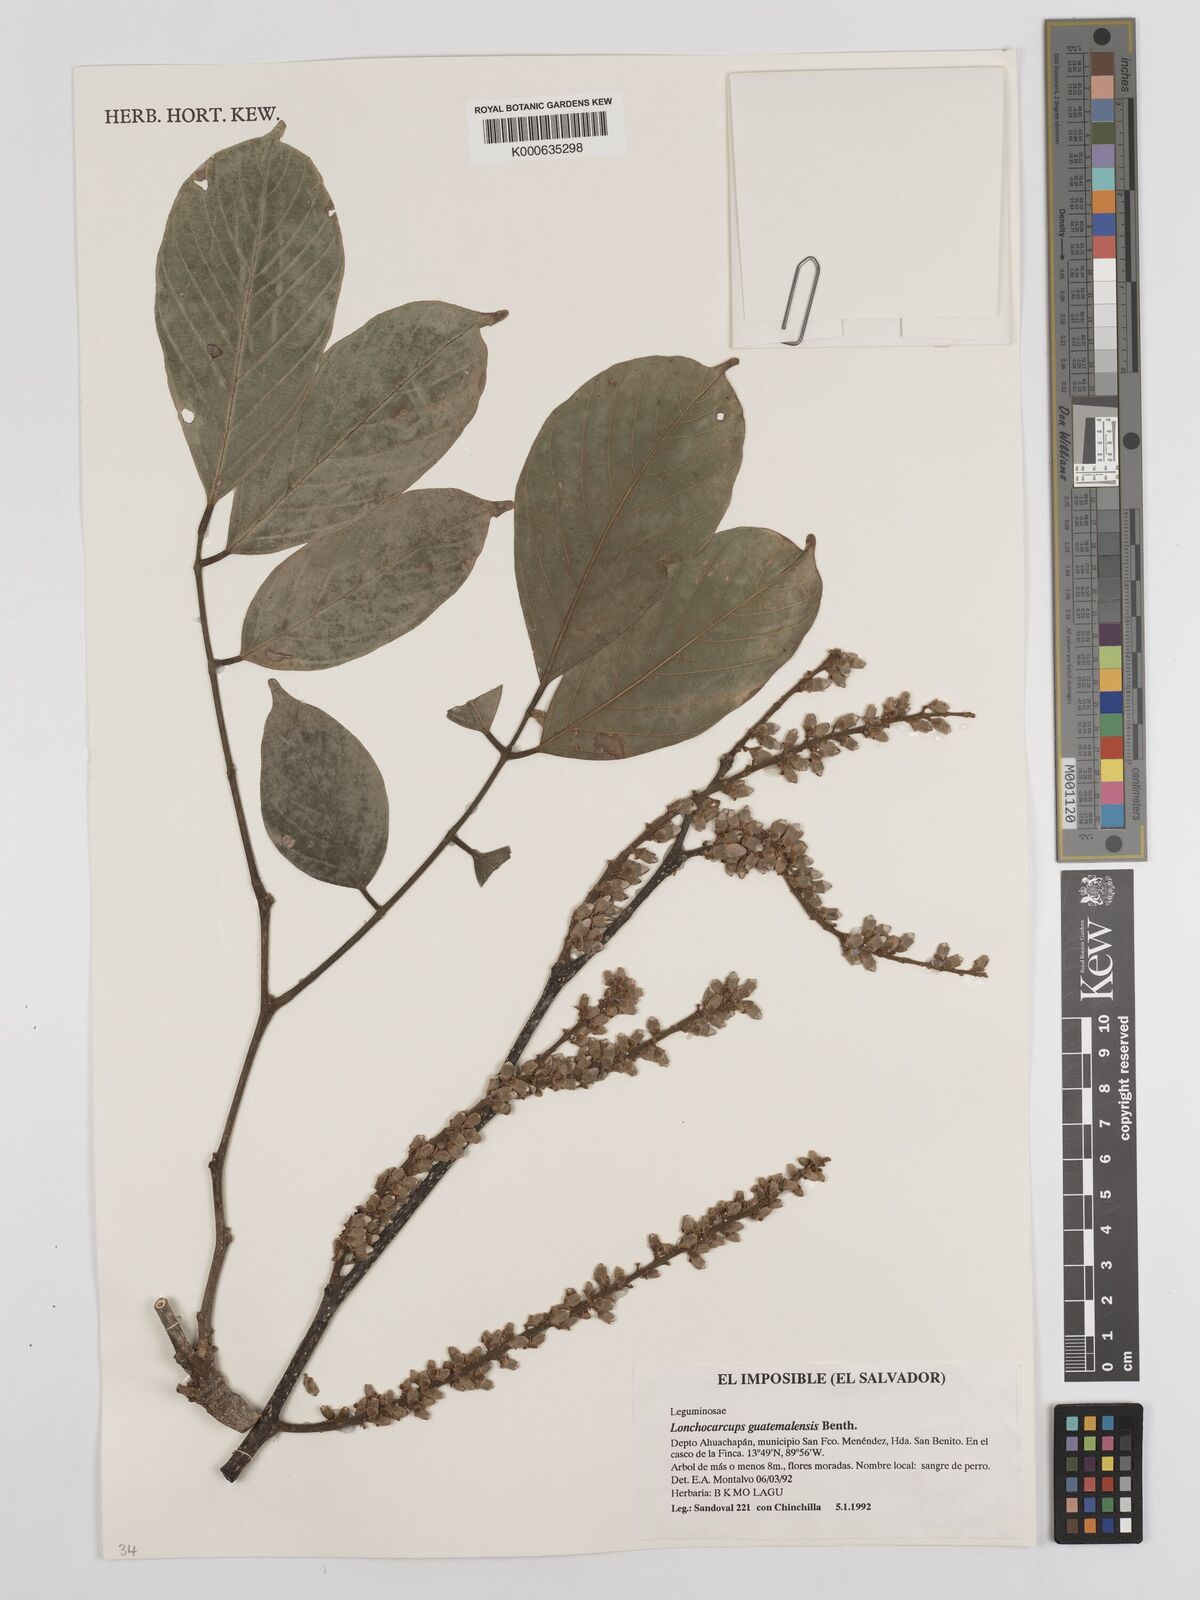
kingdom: Plantae
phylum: Tracheophyta
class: Magnoliopsida
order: Fabales
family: Fabaceae
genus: Lonchocarpus
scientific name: Lonchocarpus guatemalensis
